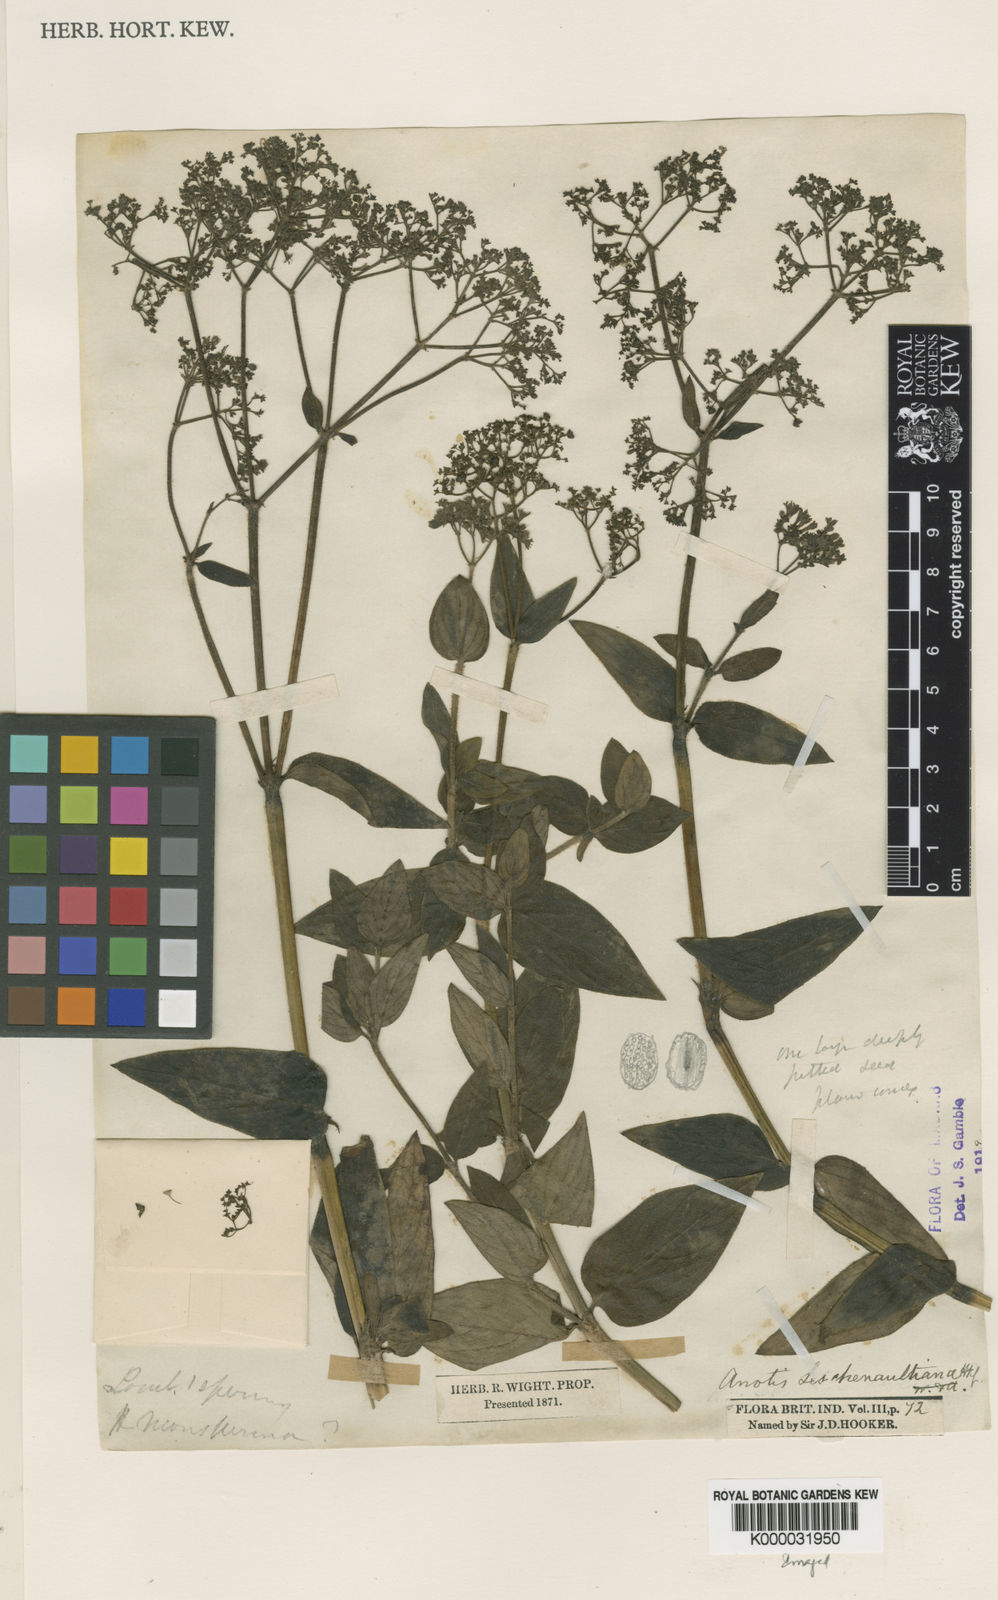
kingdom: Plantae
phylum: Tracheophyta
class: Magnoliopsida
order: Gentianales
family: Rubiaceae
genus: Neanotis
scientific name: Neanotis indica
